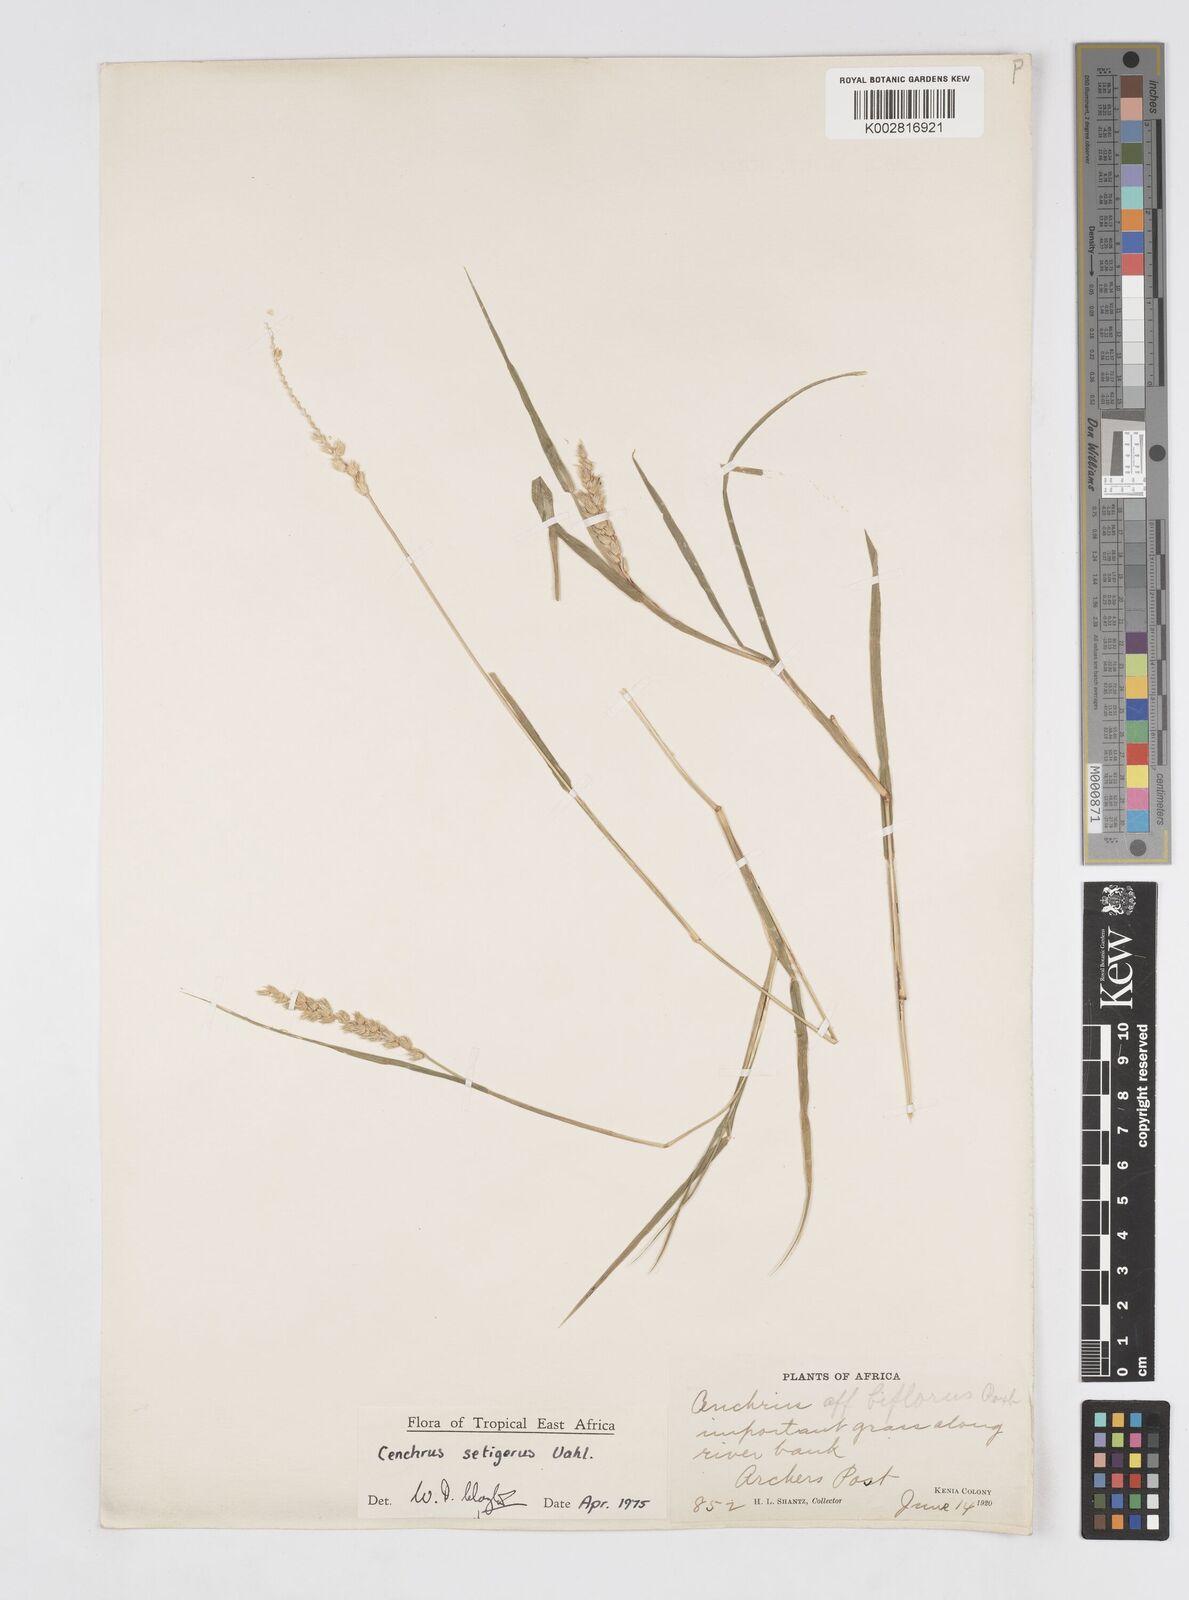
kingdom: Plantae
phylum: Tracheophyta
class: Liliopsida
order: Poales
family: Poaceae
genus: Cenchrus
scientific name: Cenchrus setigerus
